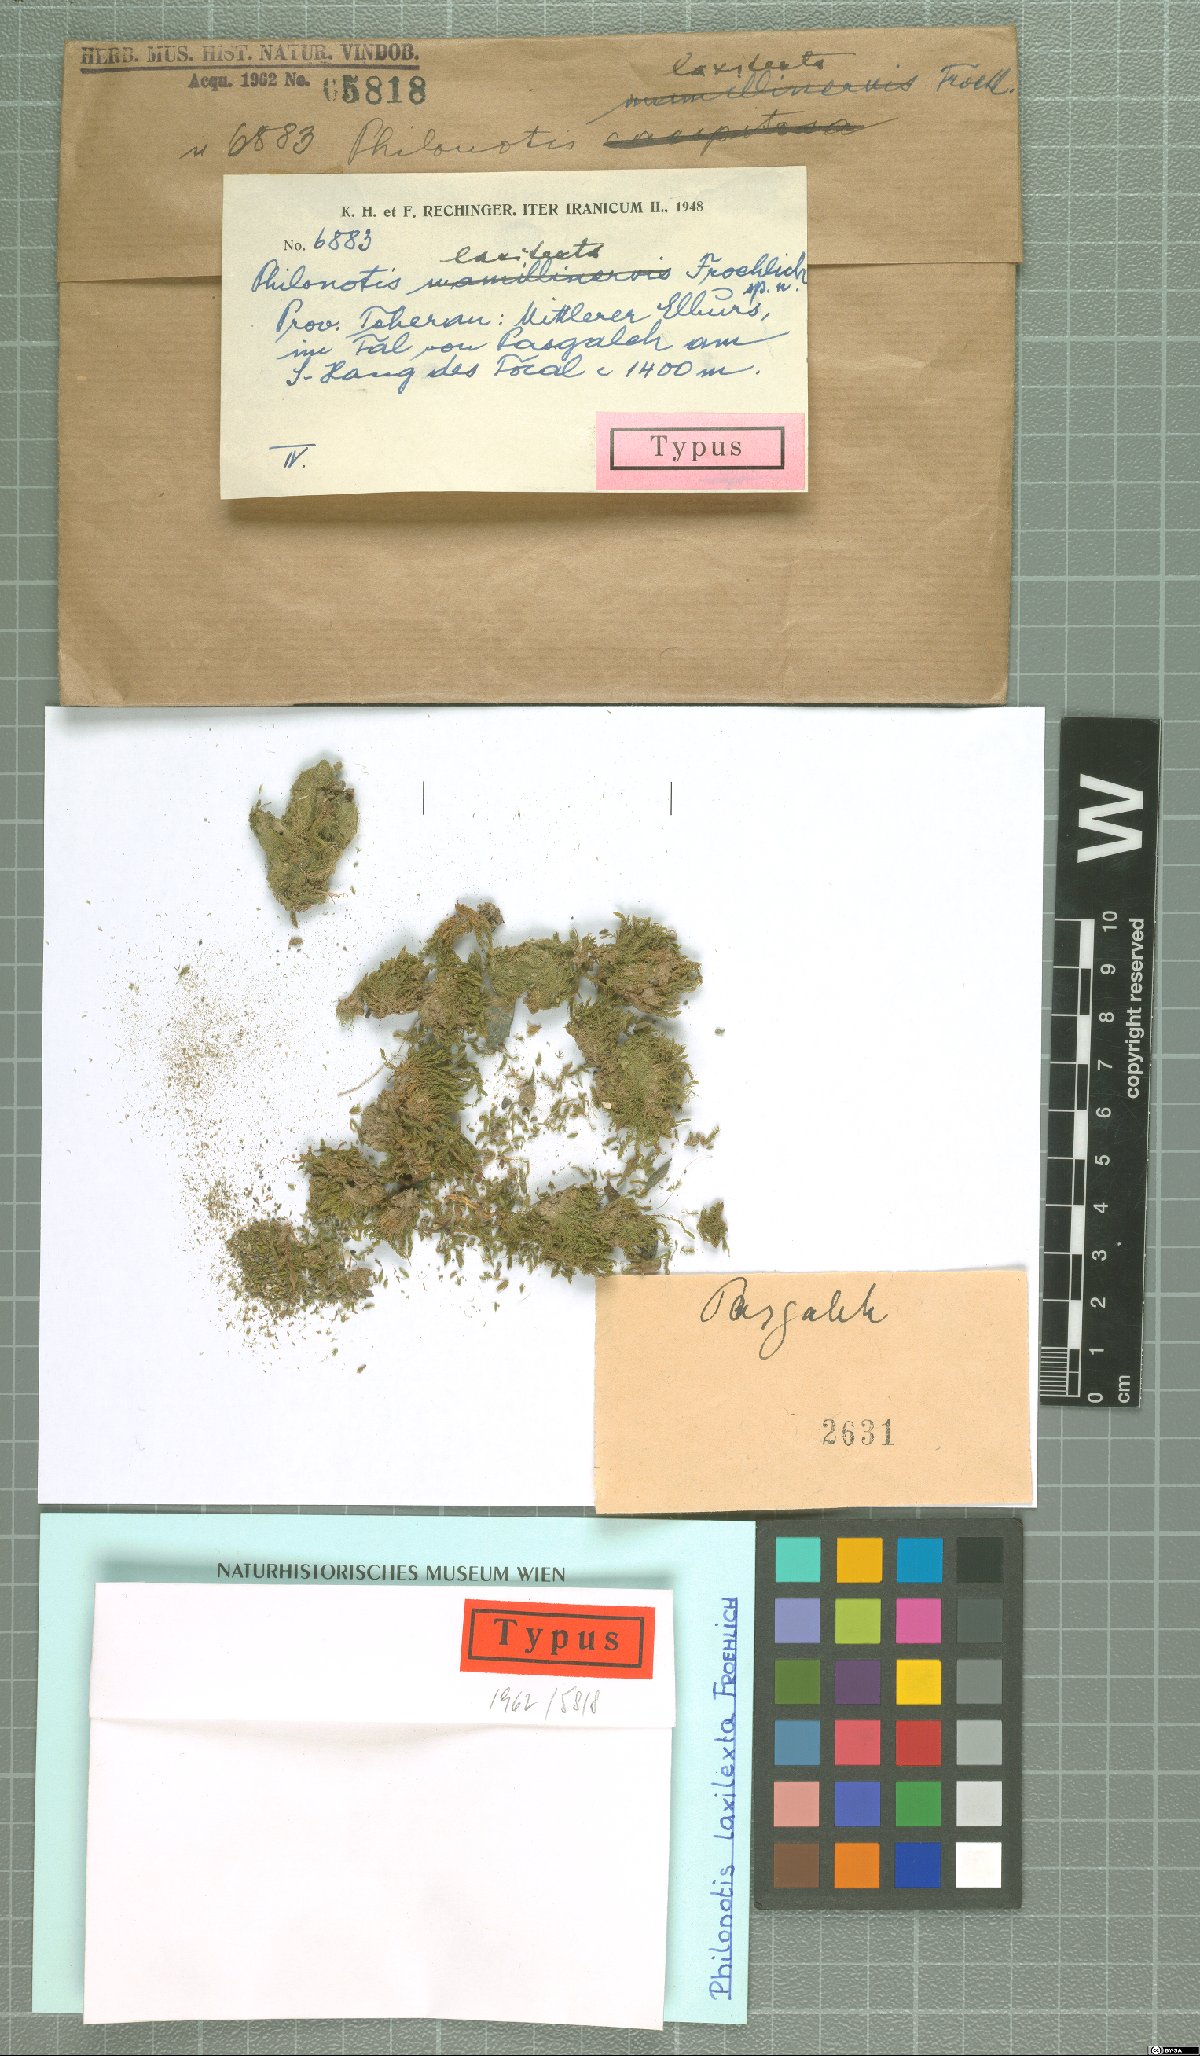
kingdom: Plantae
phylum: Bryophyta
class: Bryopsida
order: Bartramiales
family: Bartramiaceae
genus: Philonotis
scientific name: Philonotis laxitexta
